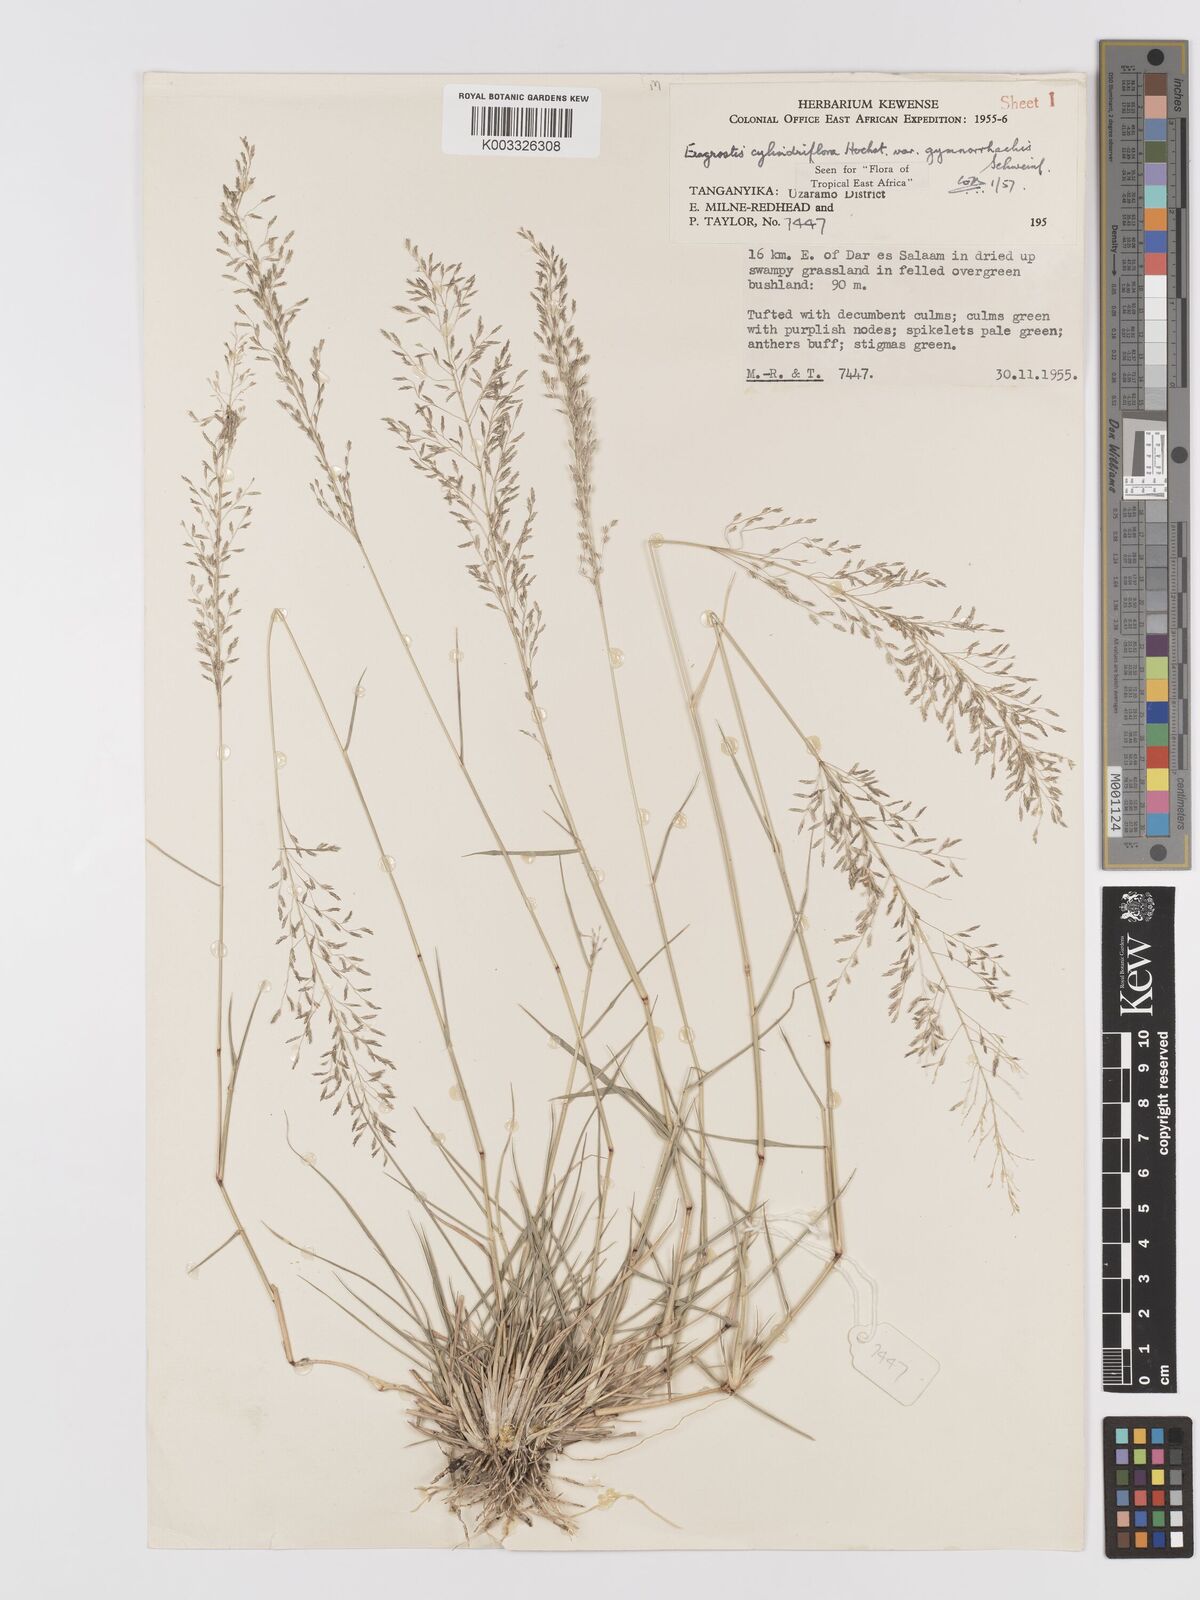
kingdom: Plantae
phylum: Tracheophyta
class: Liliopsida
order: Poales
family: Poaceae
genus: Eragrostis
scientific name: Eragrostis cylindriflora
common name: Cylinderflower lovegrass
